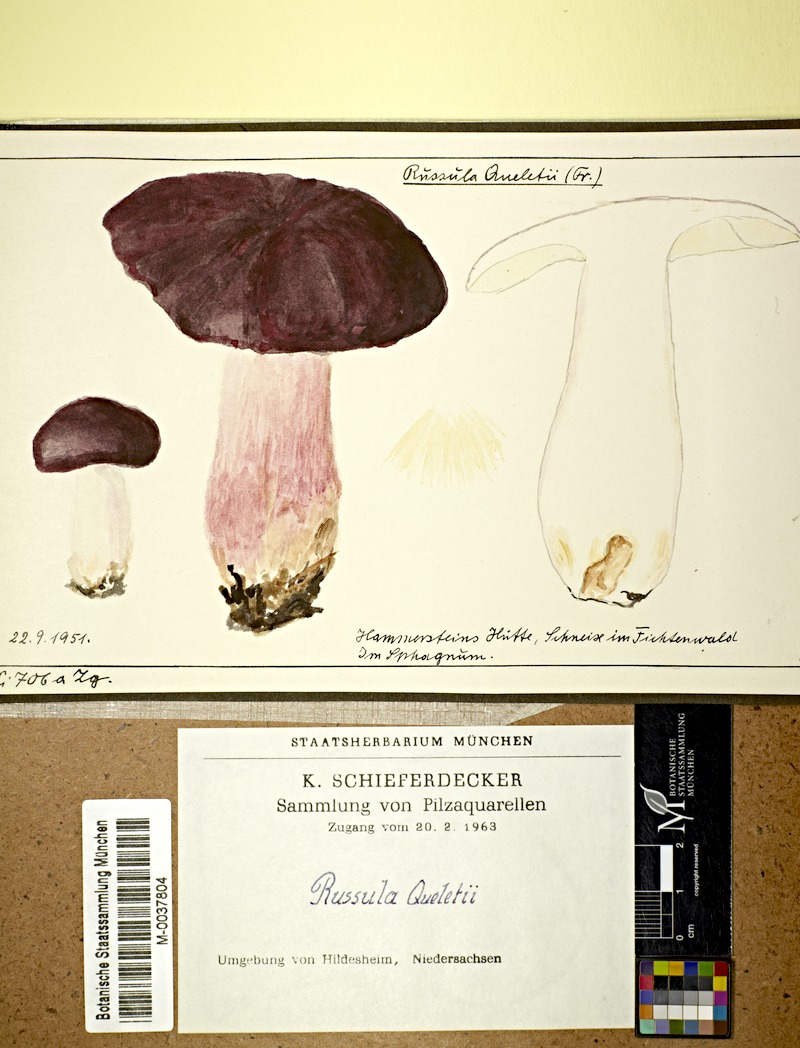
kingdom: Fungi
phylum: Basidiomycota
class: Agaricomycetes
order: Russulales
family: Russulaceae
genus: Russula
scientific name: Russula queletii
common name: Fruity brittlegill
